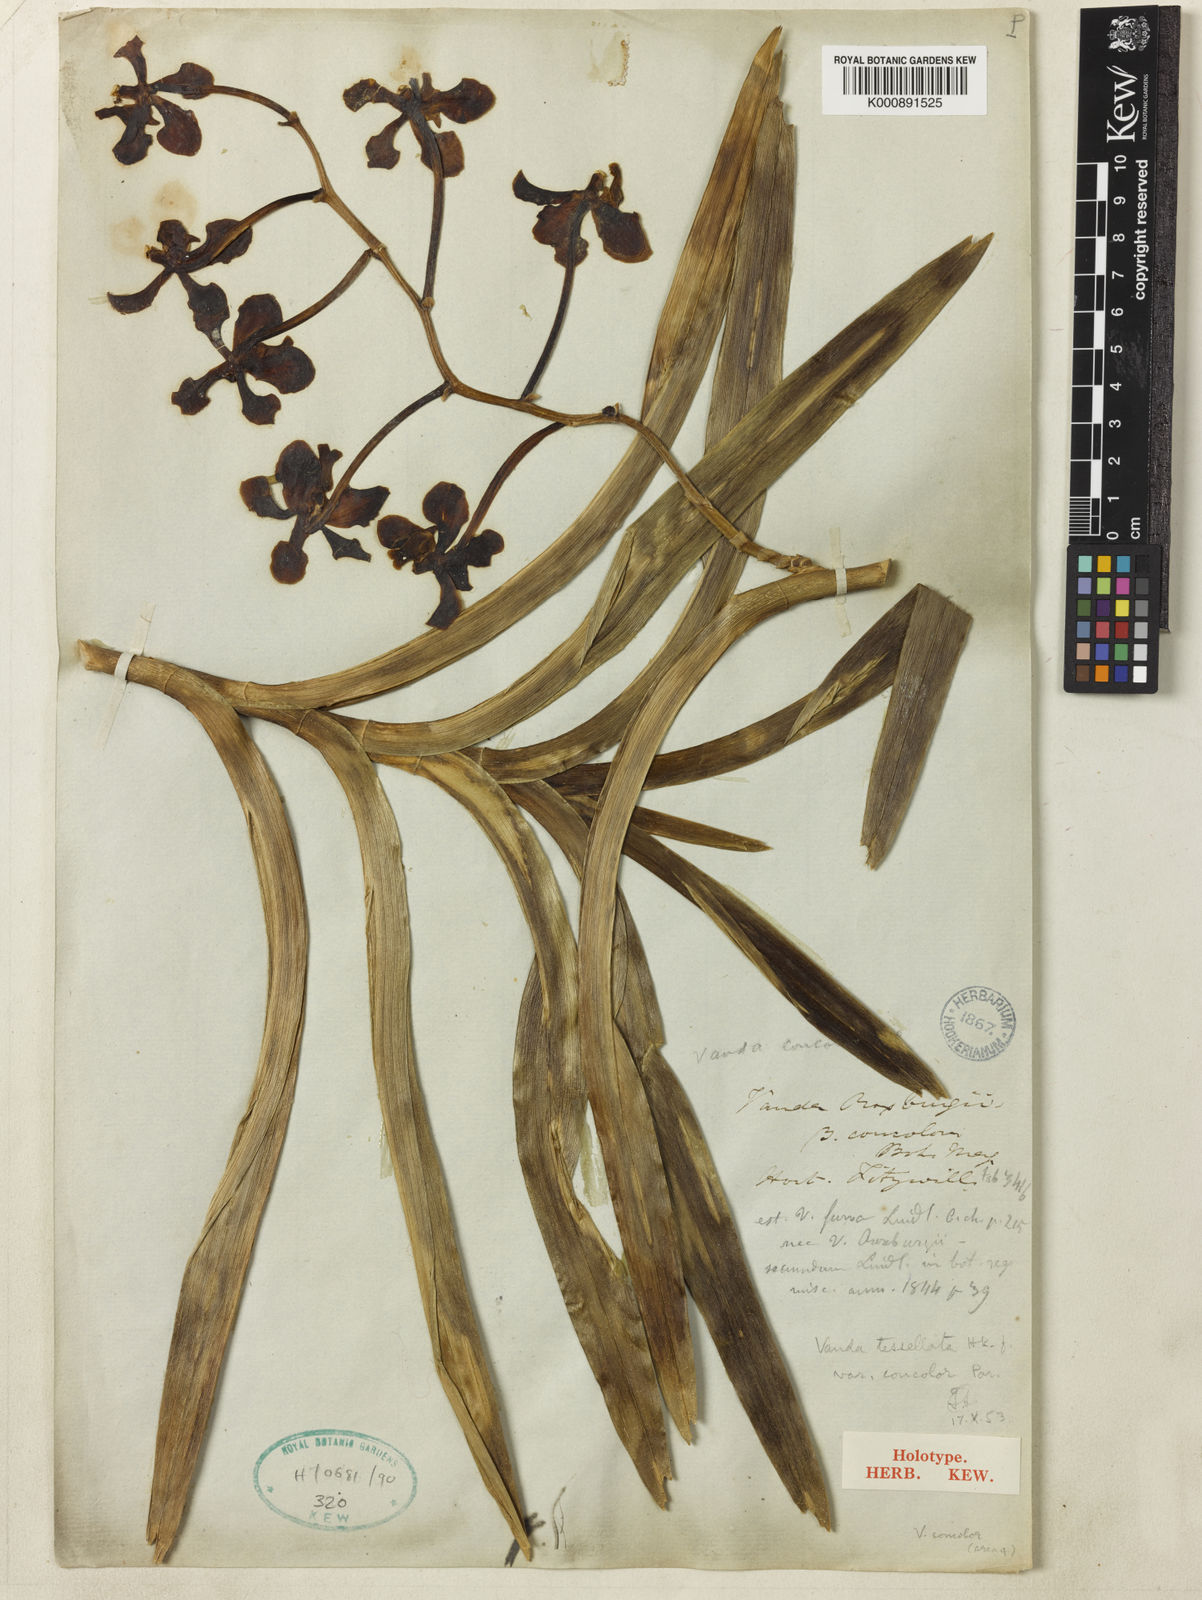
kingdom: Plantae
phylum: Tracheophyta
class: Liliopsida
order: Asparagales
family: Orchidaceae
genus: Vanda
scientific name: Vanda concolor
